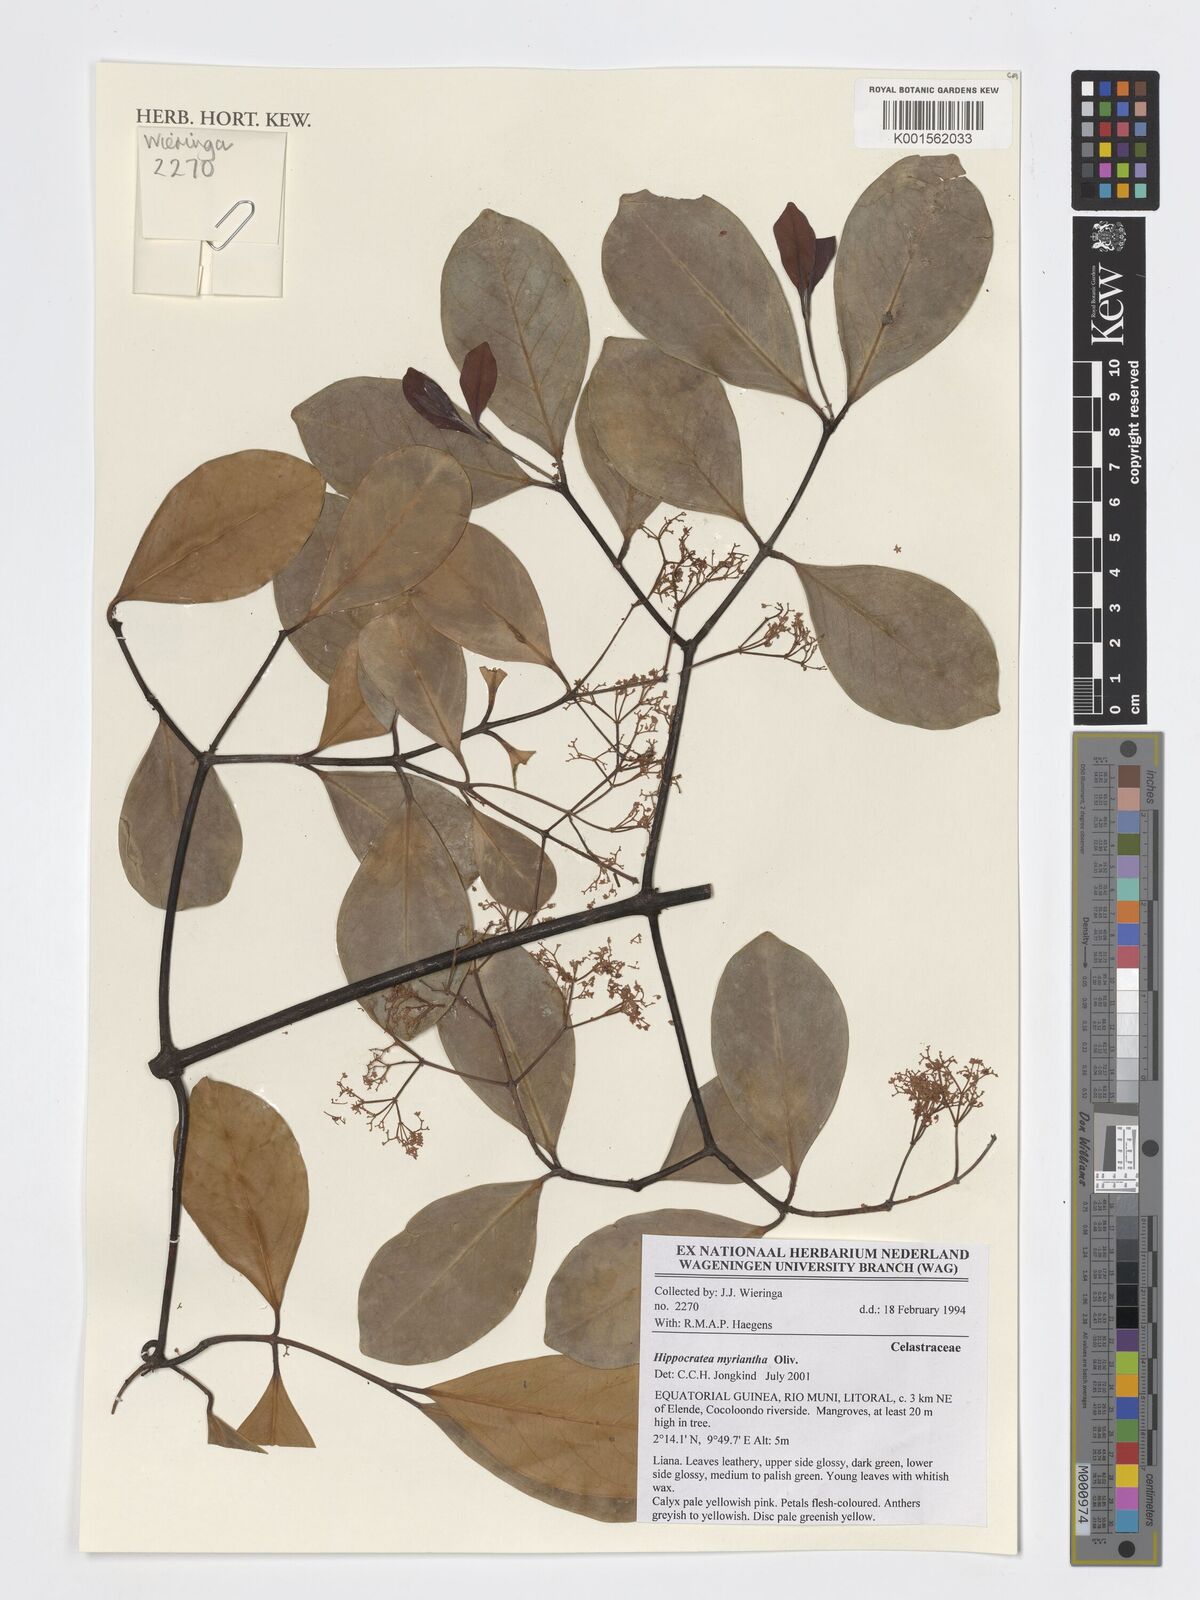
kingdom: Plantae
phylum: Tracheophyta
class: Magnoliopsida
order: Celastrales
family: Celastraceae
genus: Hippocratea
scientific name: Hippocratea myriantha
